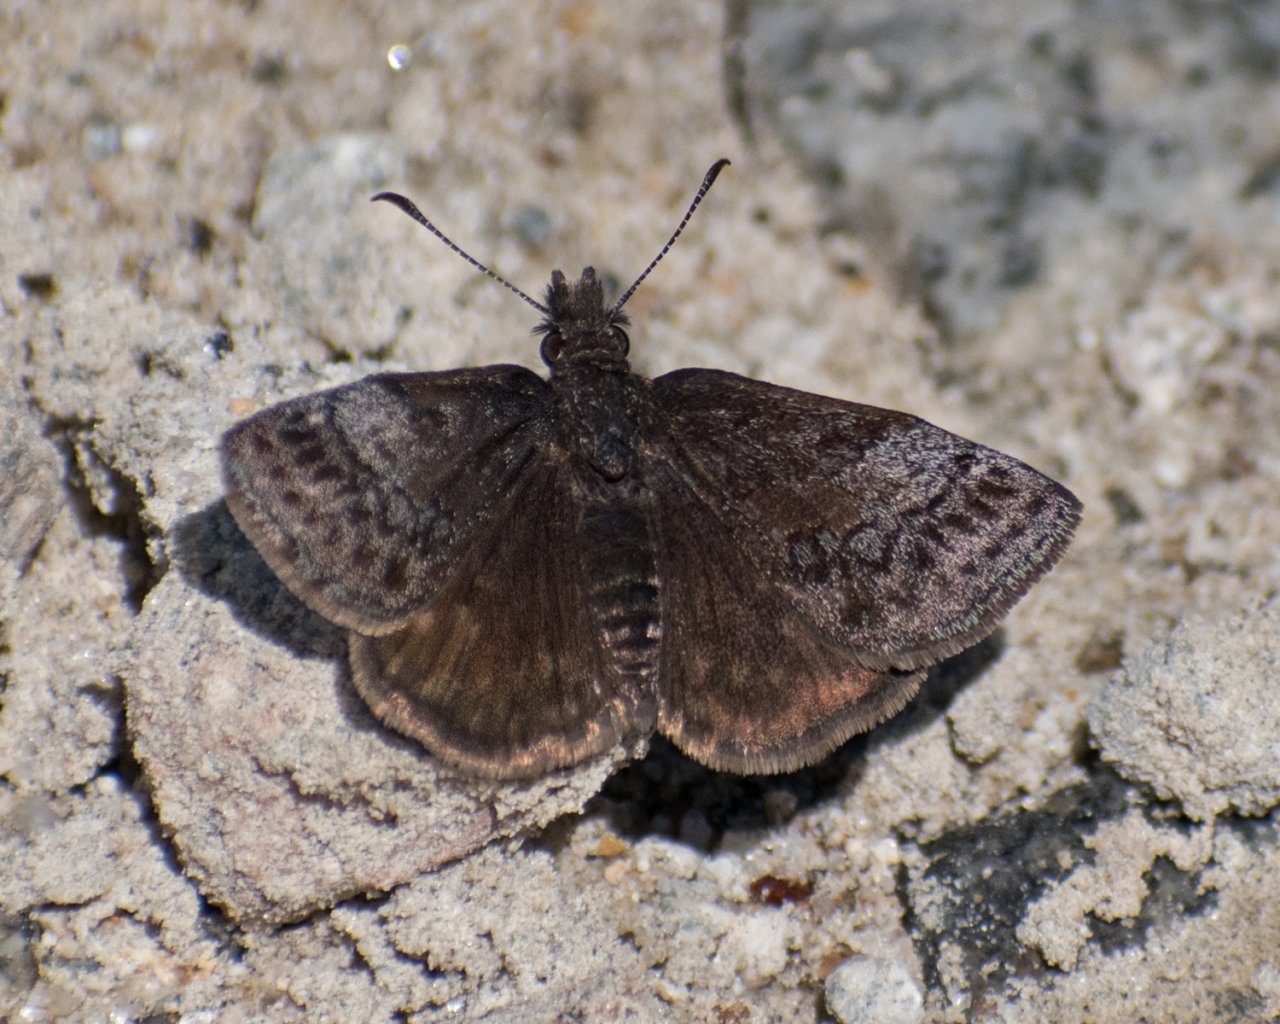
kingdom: Animalia
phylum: Arthropoda
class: Insecta
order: Lepidoptera
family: Hesperiidae
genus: Erynnis
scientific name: Erynnis icelus
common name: Dreamy Duskywing
